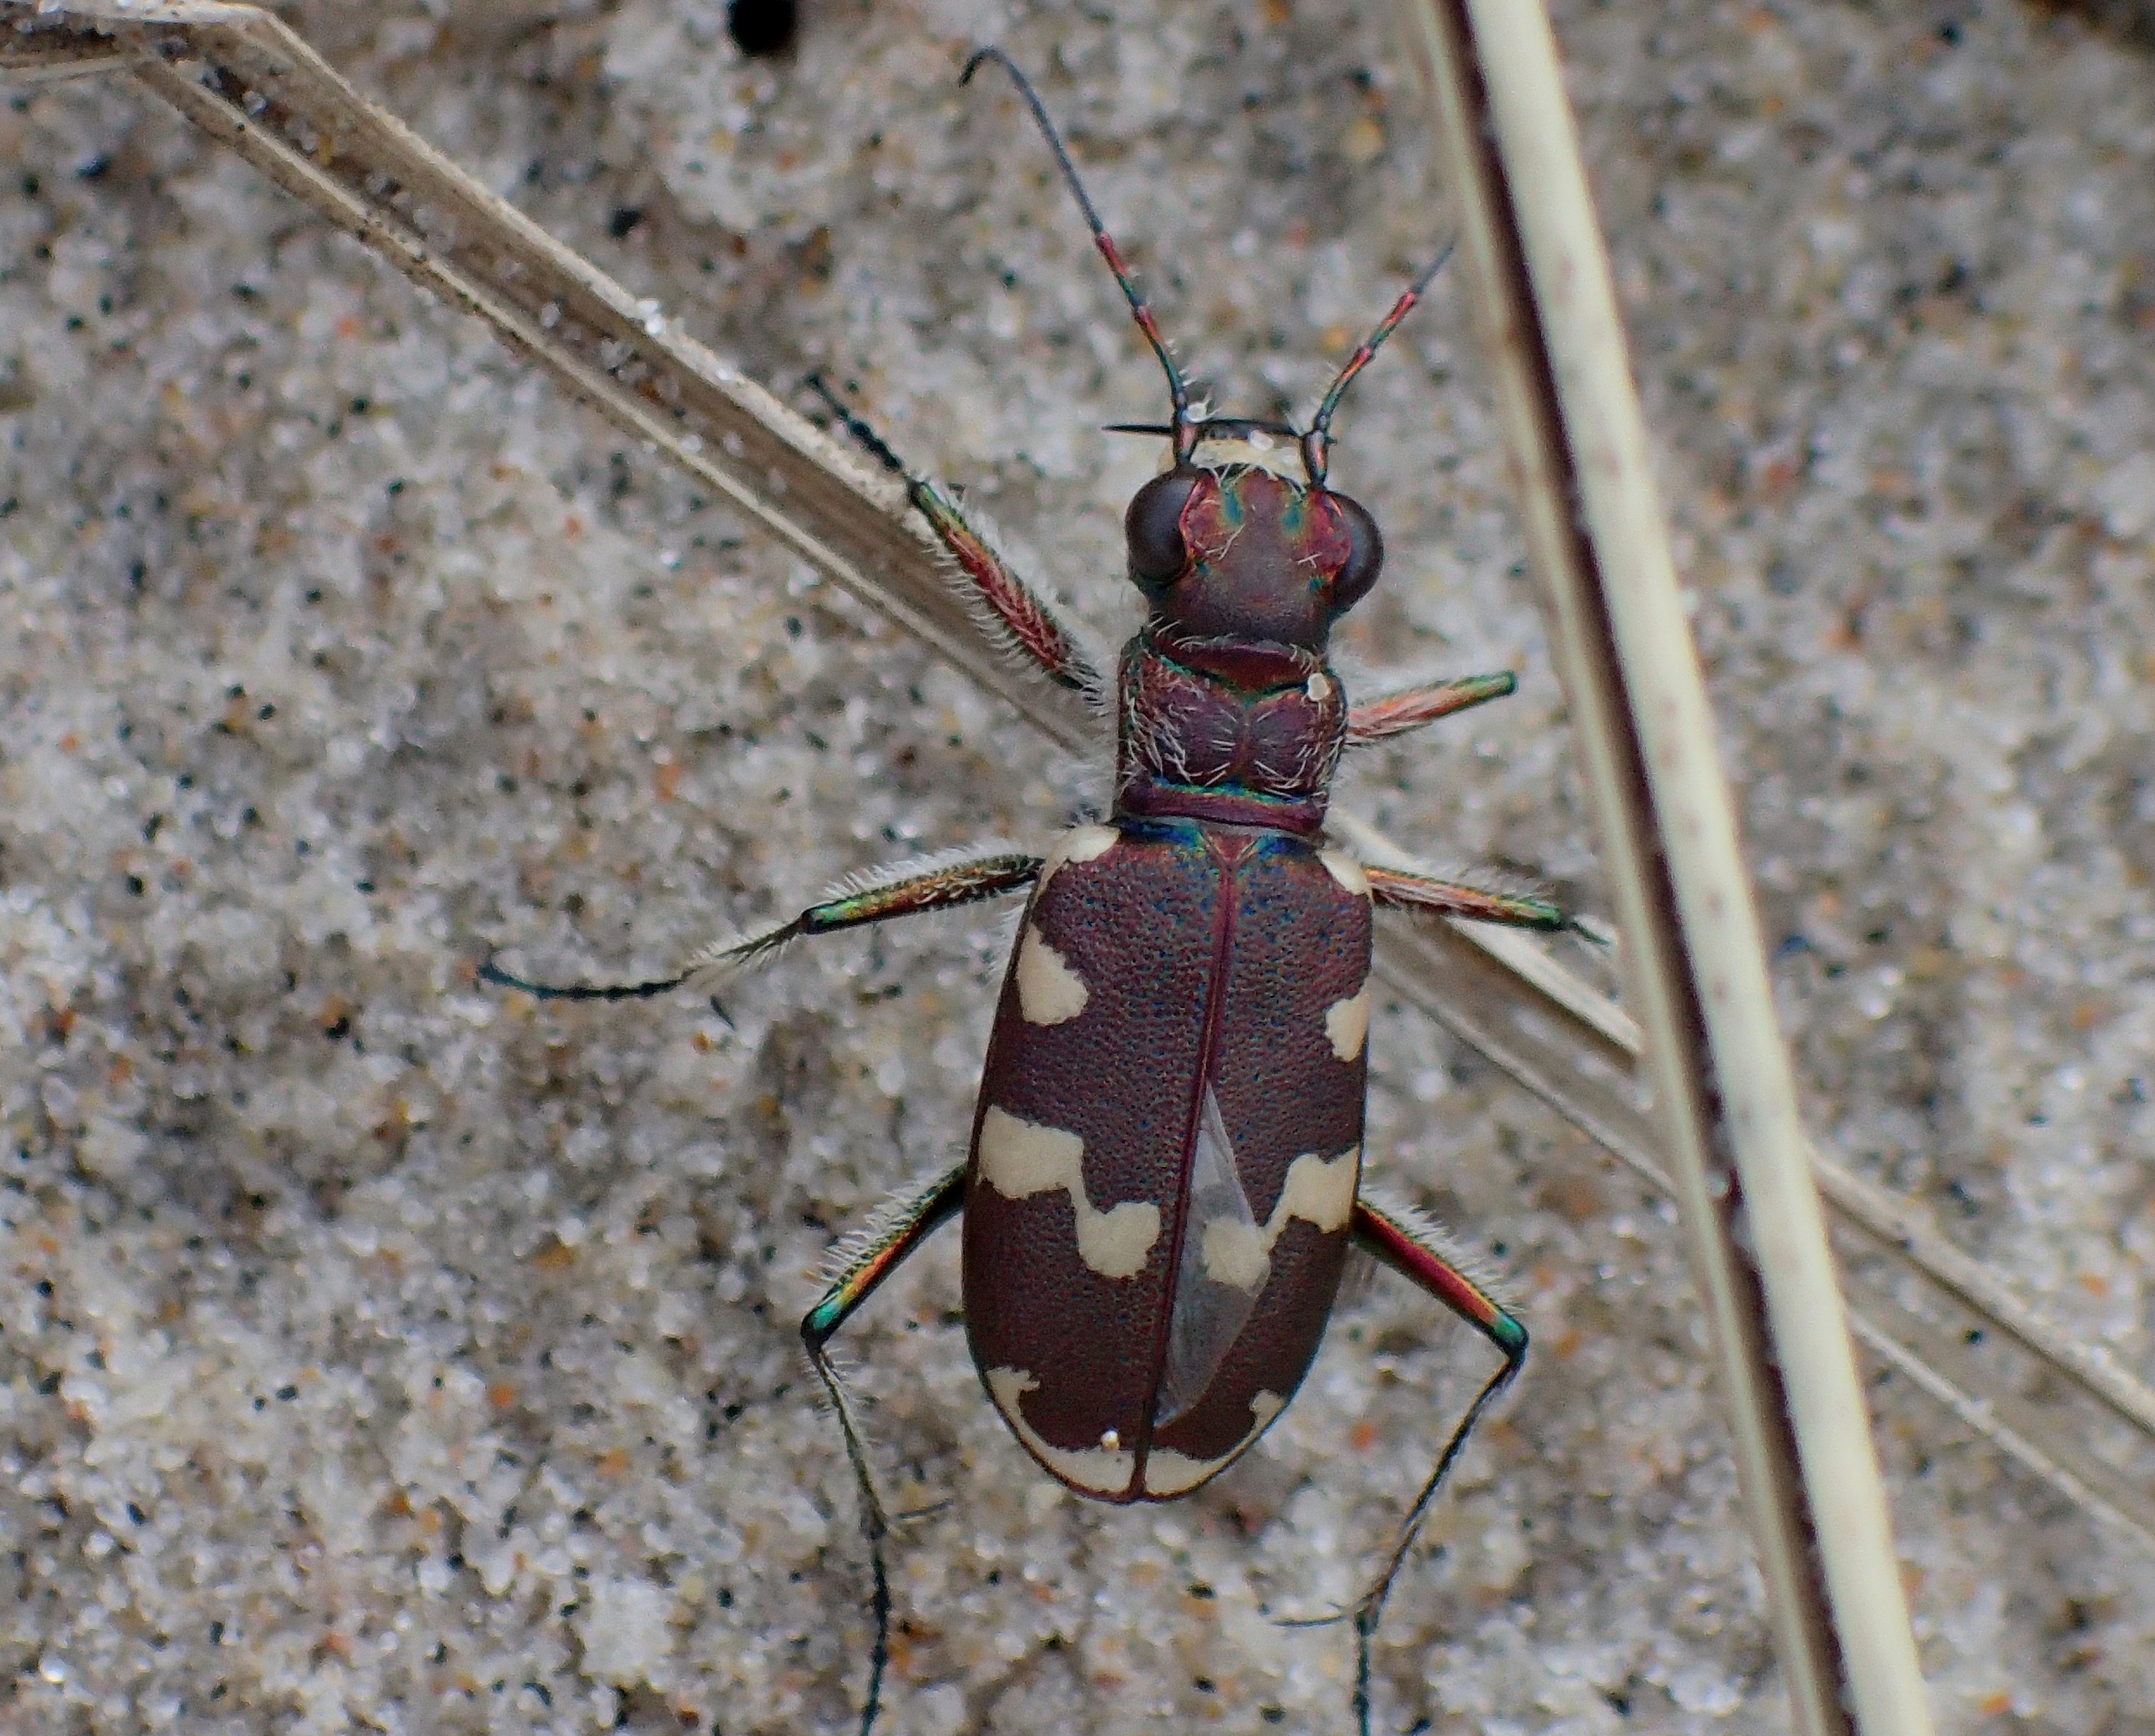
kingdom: Animalia
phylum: Arthropoda
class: Insecta
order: Coleoptera
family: Carabidae
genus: Cicindela
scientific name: Cicindela maritima
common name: Klitsandspringer
